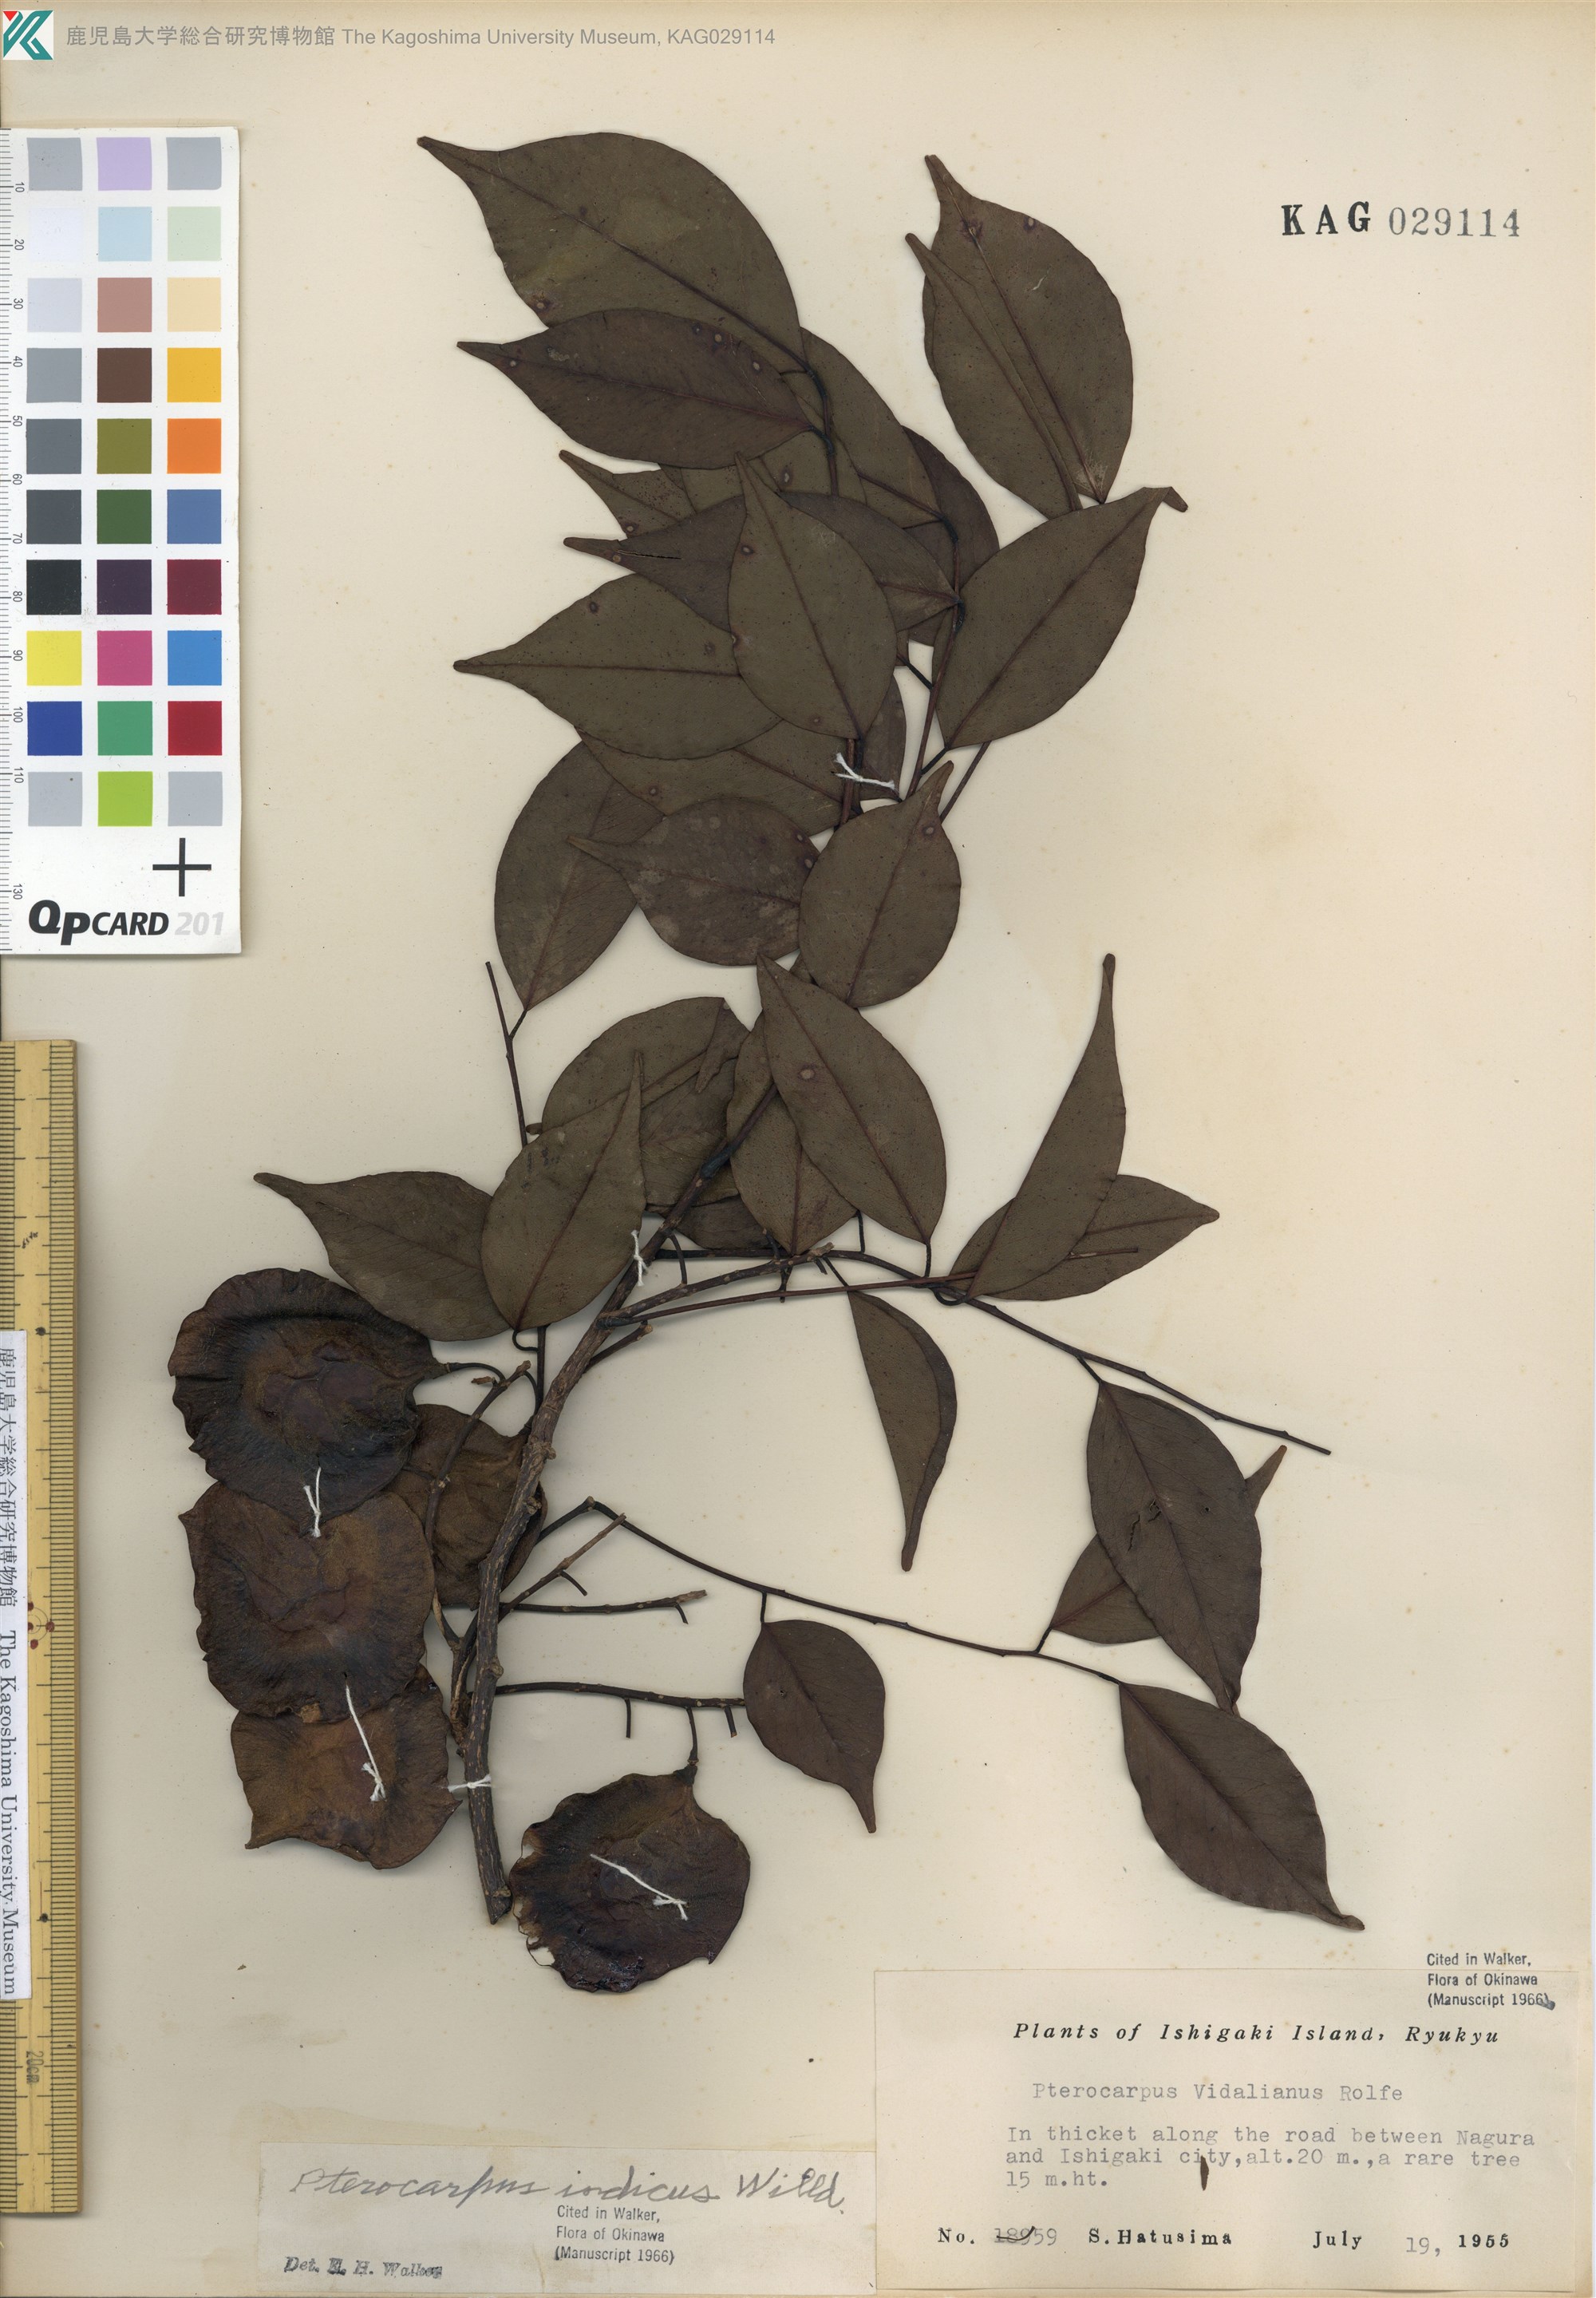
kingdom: Plantae
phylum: Tracheophyta
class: Magnoliopsida
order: Fabales
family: Fabaceae
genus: Pterocarpus
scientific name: Pterocarpus indicus
